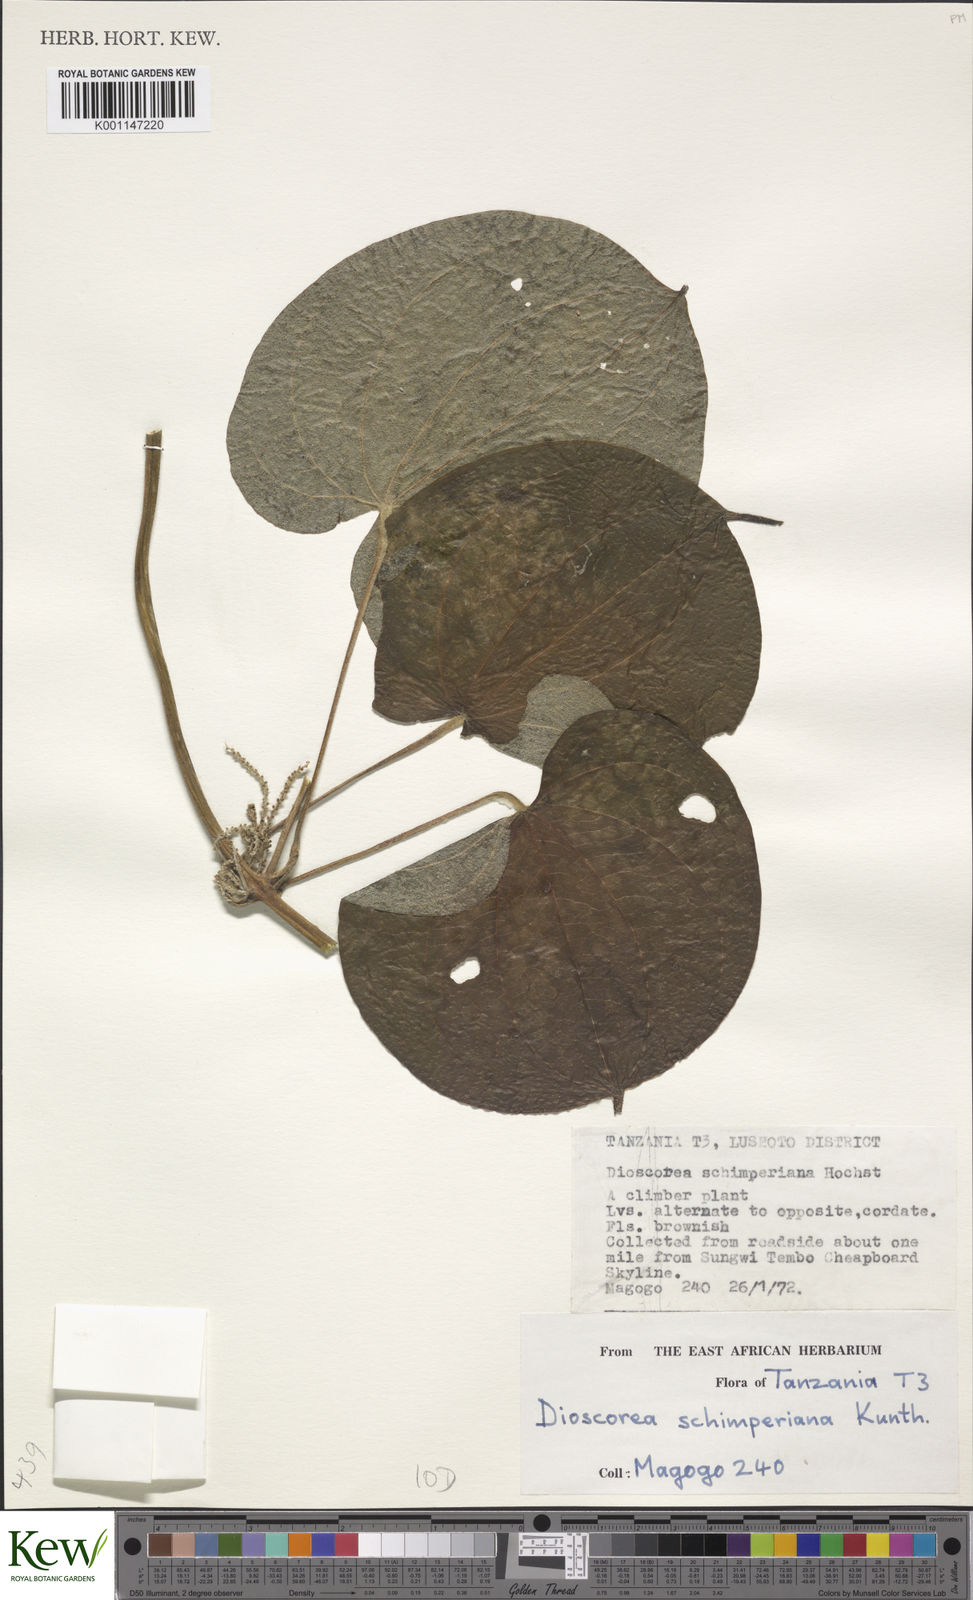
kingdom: Plantae
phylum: Tracheophyta
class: Liliopsida
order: Dioscoreales
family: Dioscoreaceae
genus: Dioscorea
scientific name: Dioscorea schimperiana
